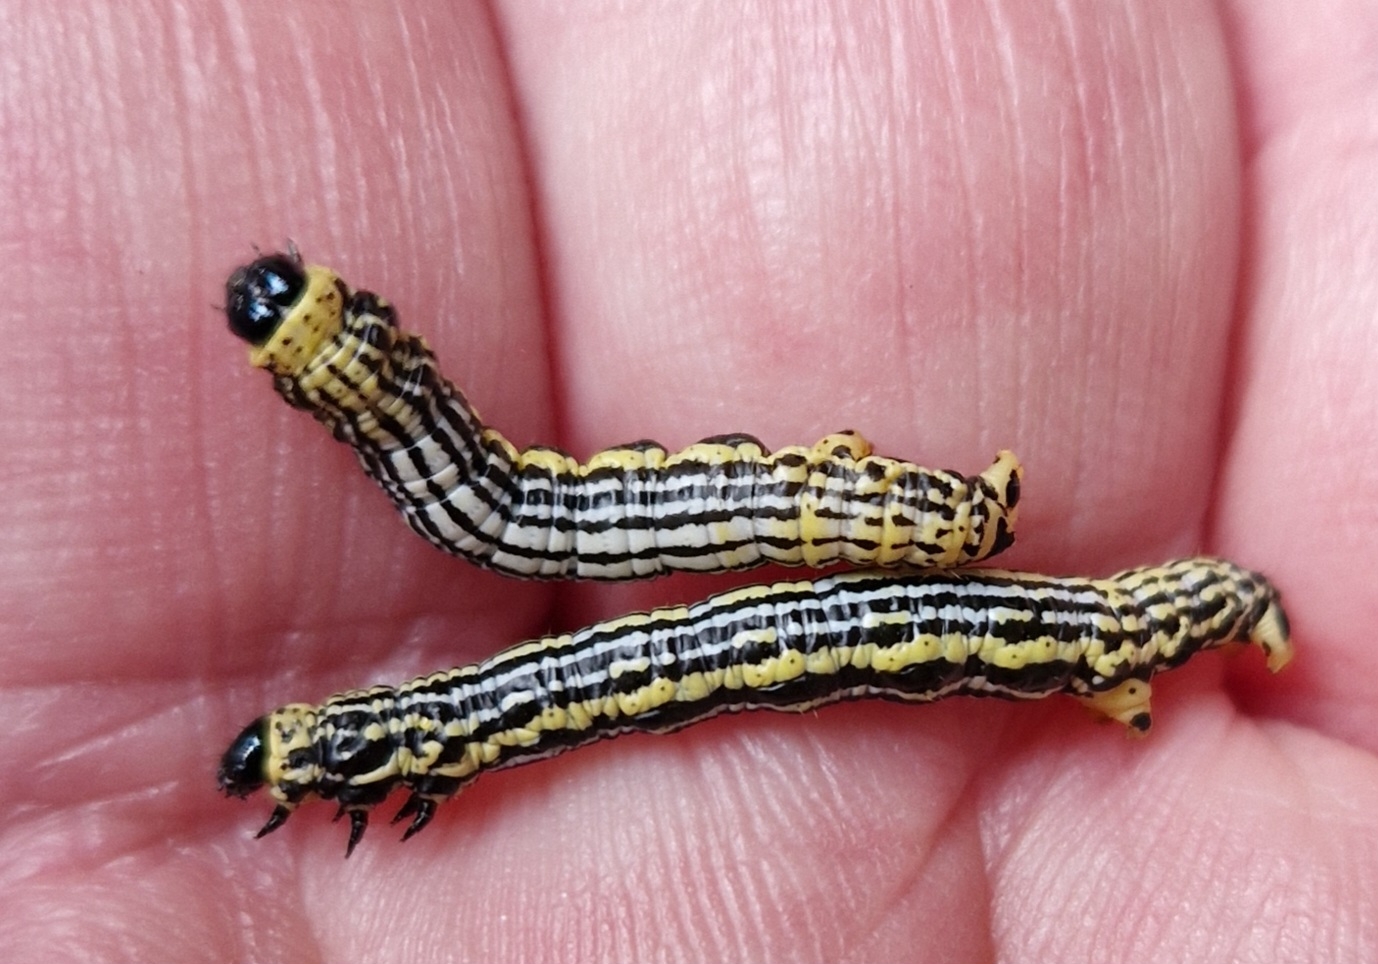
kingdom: Animalia
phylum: Arthropoda
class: Insecta
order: Lepidoptera
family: Geometridae
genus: Abraxas
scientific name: Abraxas sylvata
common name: Elmemåler
